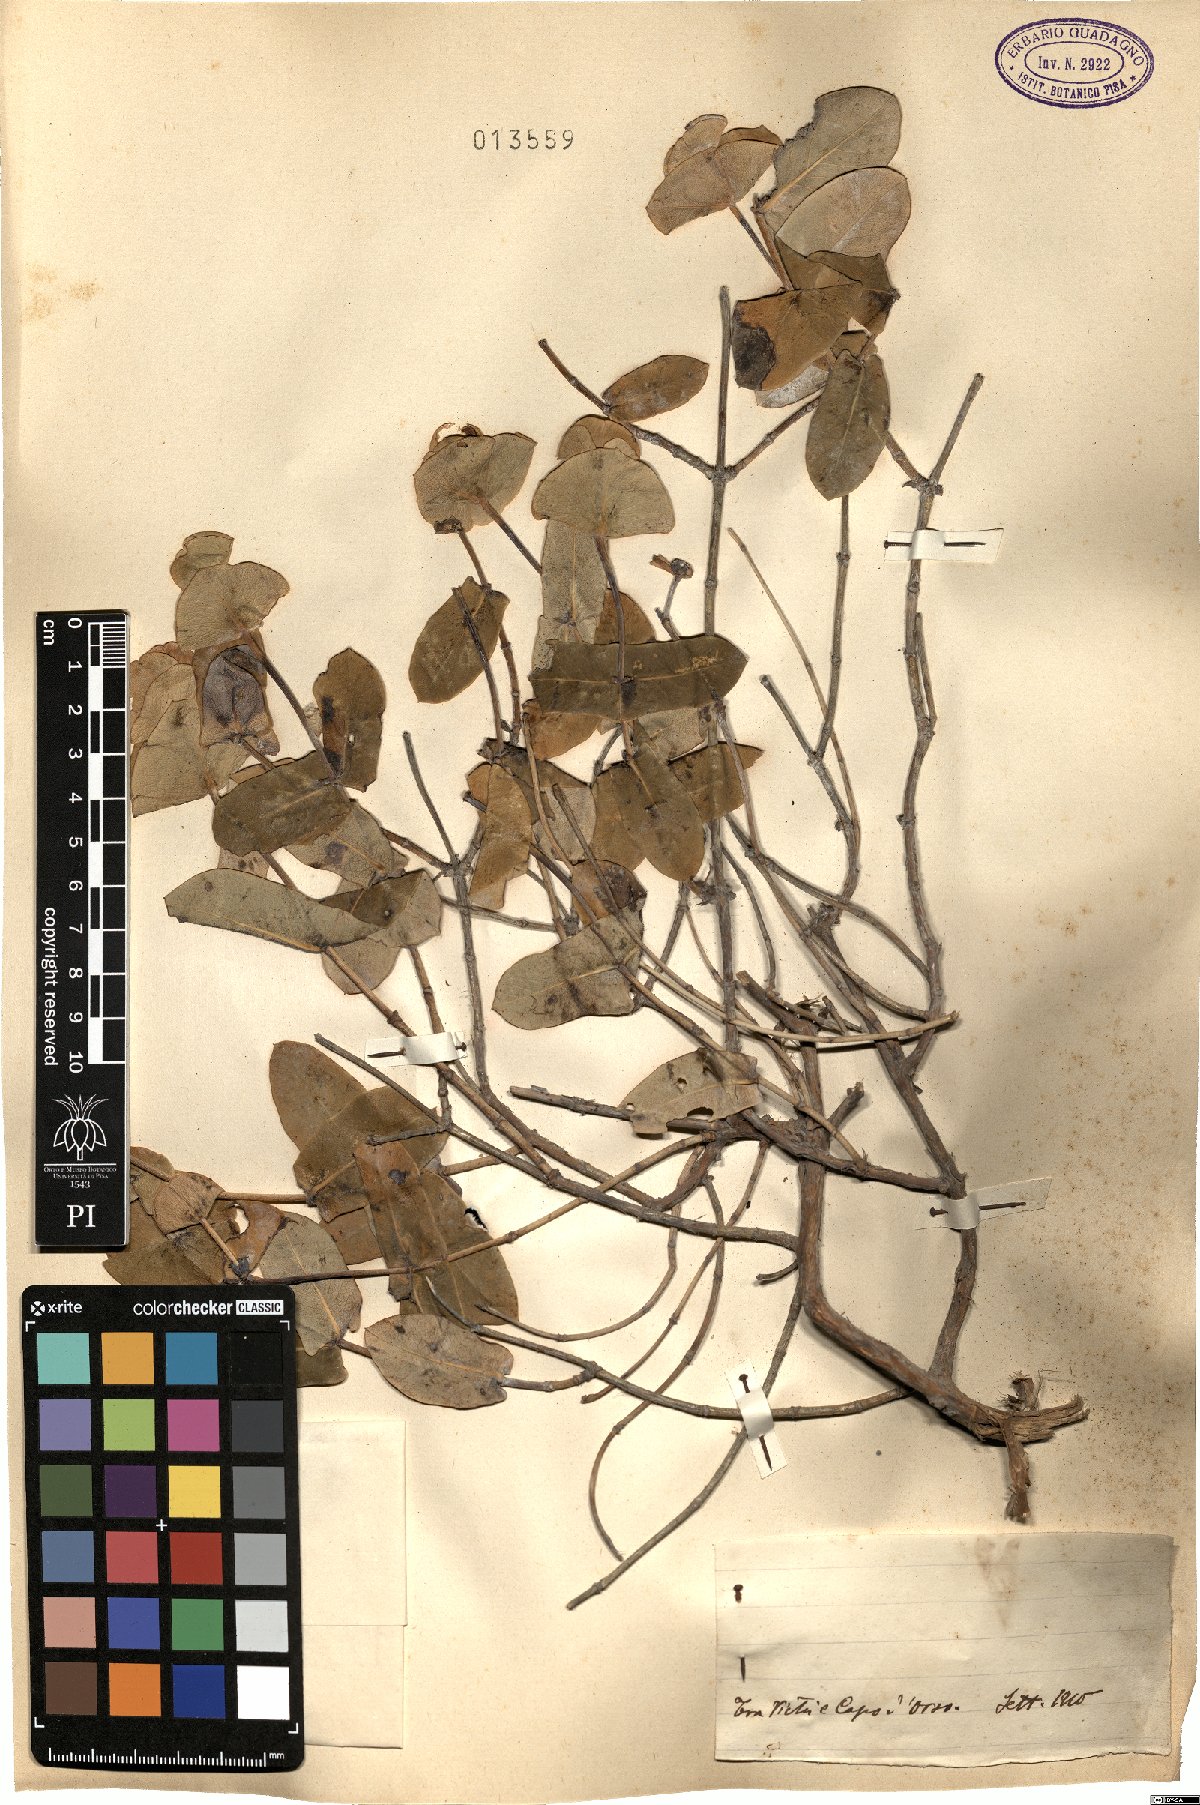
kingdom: Plantae
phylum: Tracheophyta
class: Magnoliopsida
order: Dipsacales
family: Caprifoliaceae
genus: Lonicera
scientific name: Lonicera
